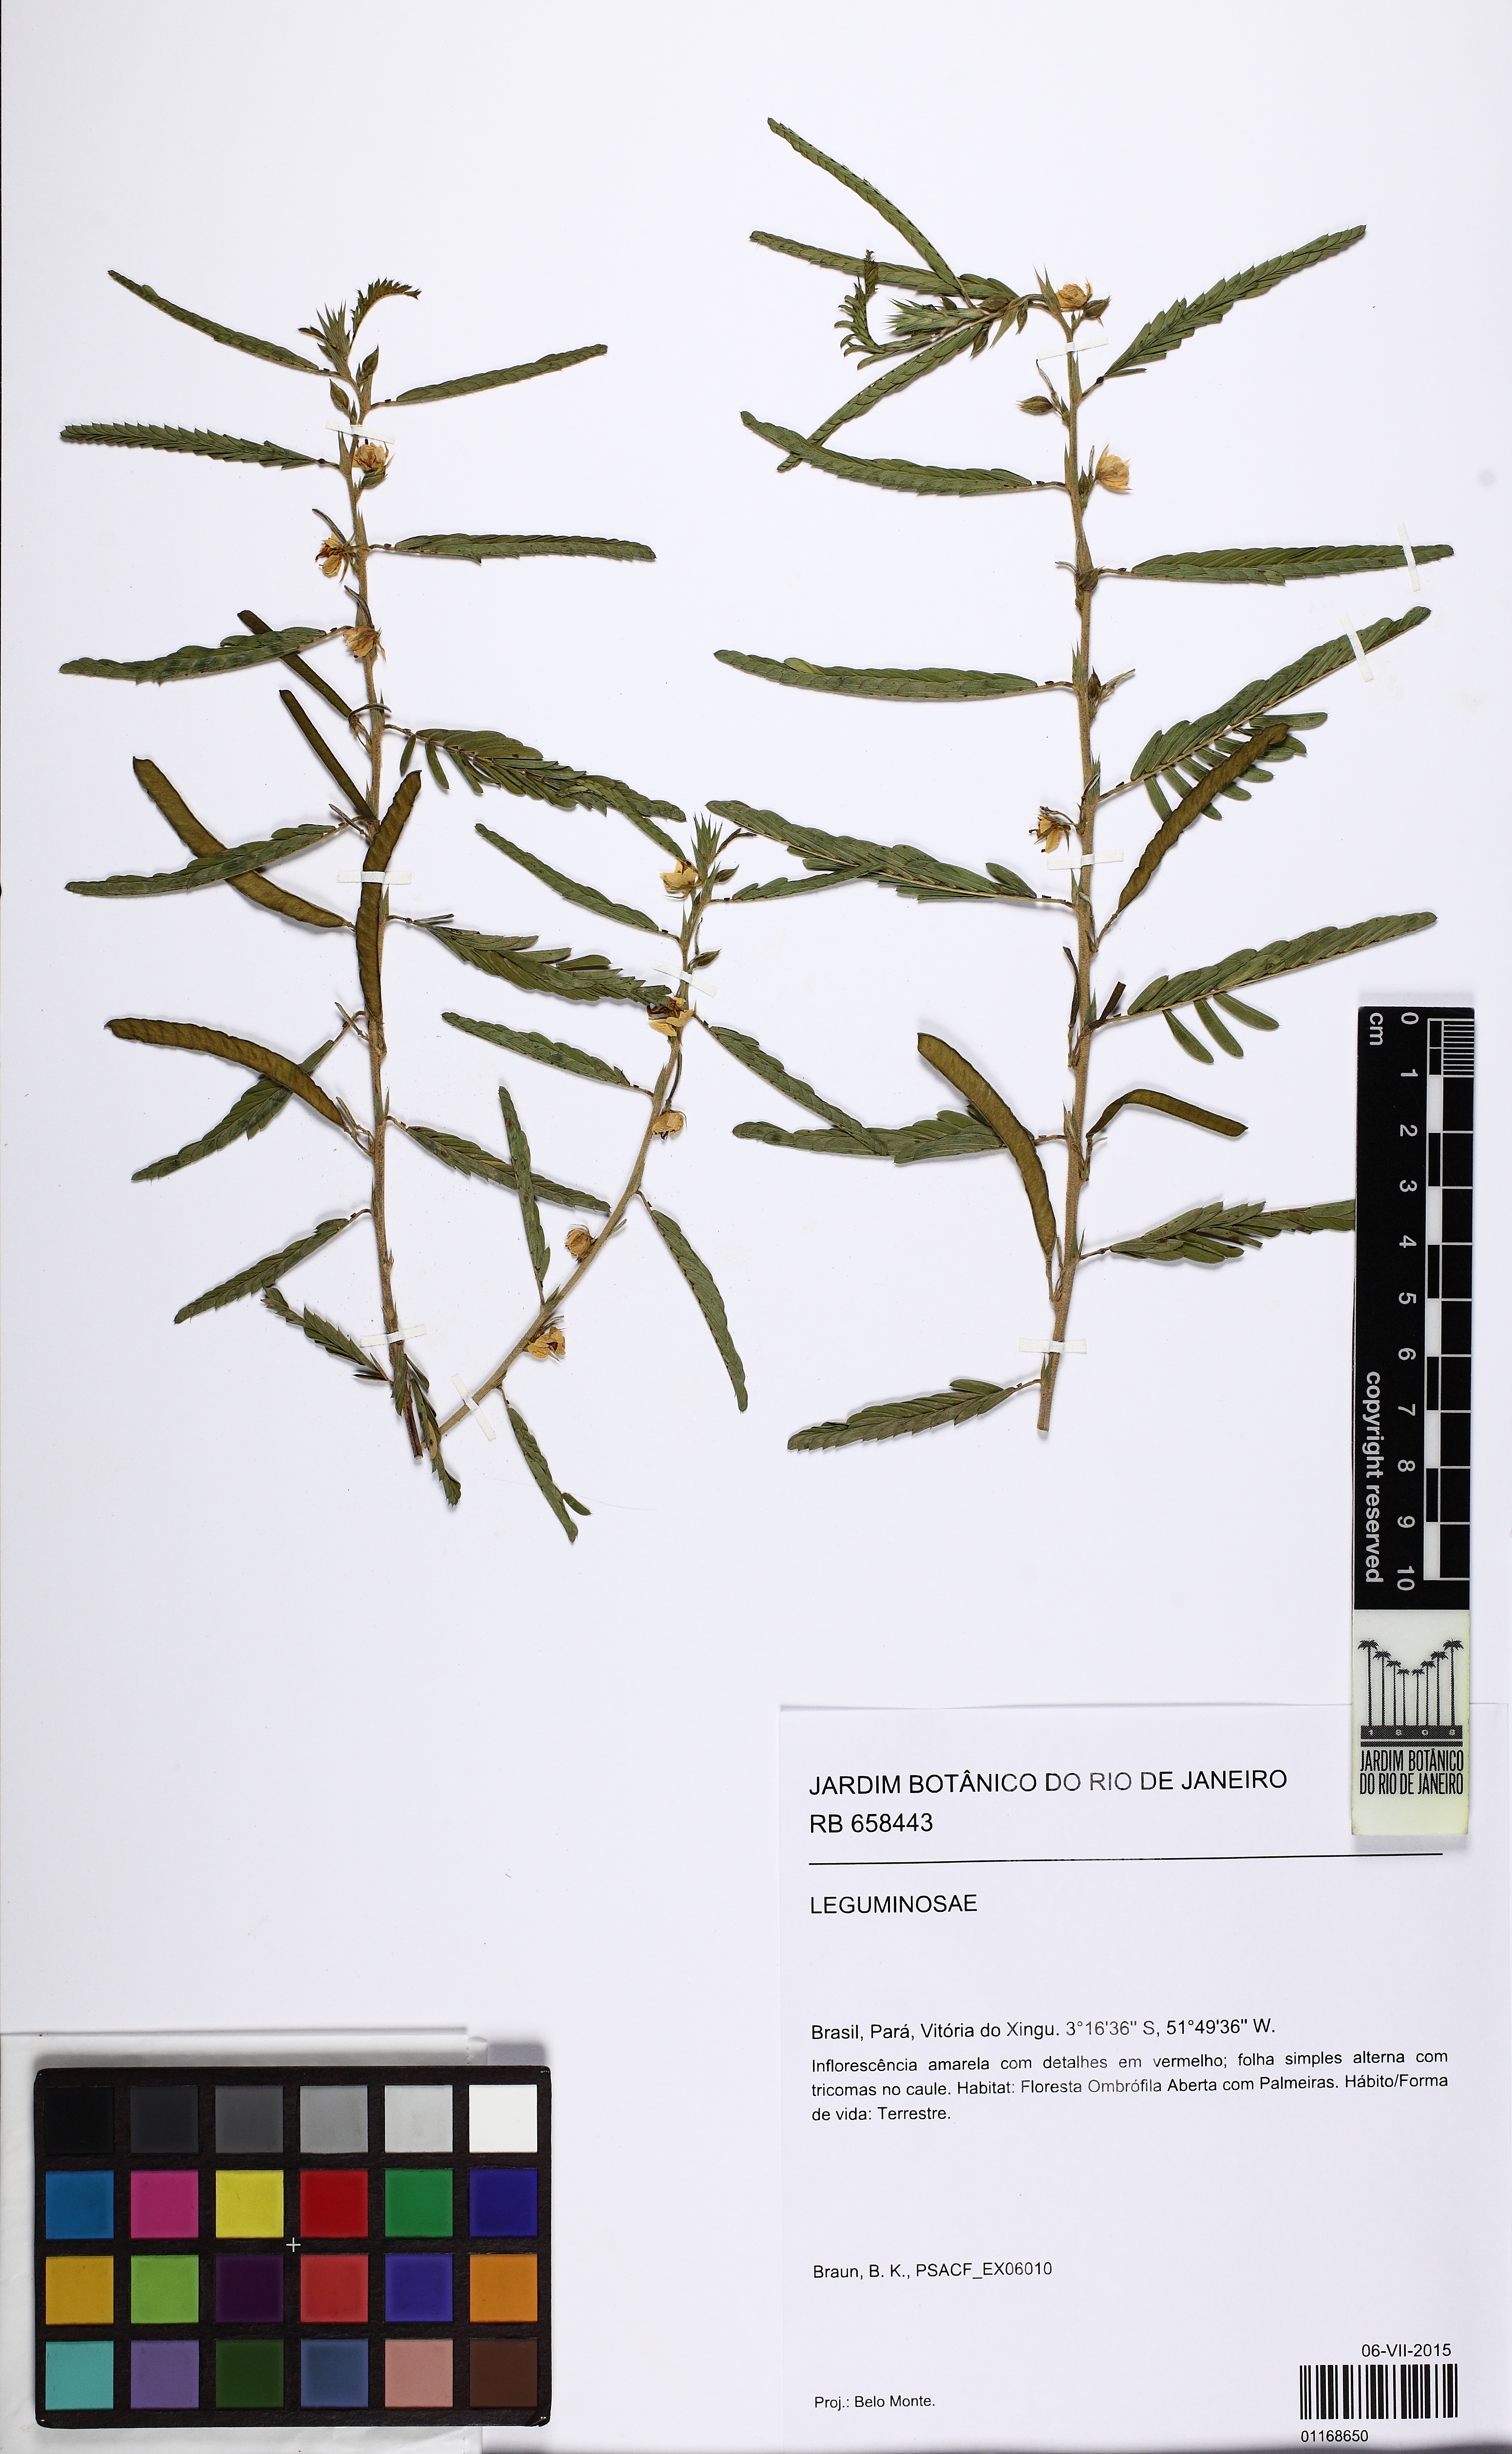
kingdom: Plantae
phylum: Tracheophyta
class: Magnoliopsida
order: Fabales
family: Fabaceae
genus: Chamaecrista
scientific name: Chamaecrista
